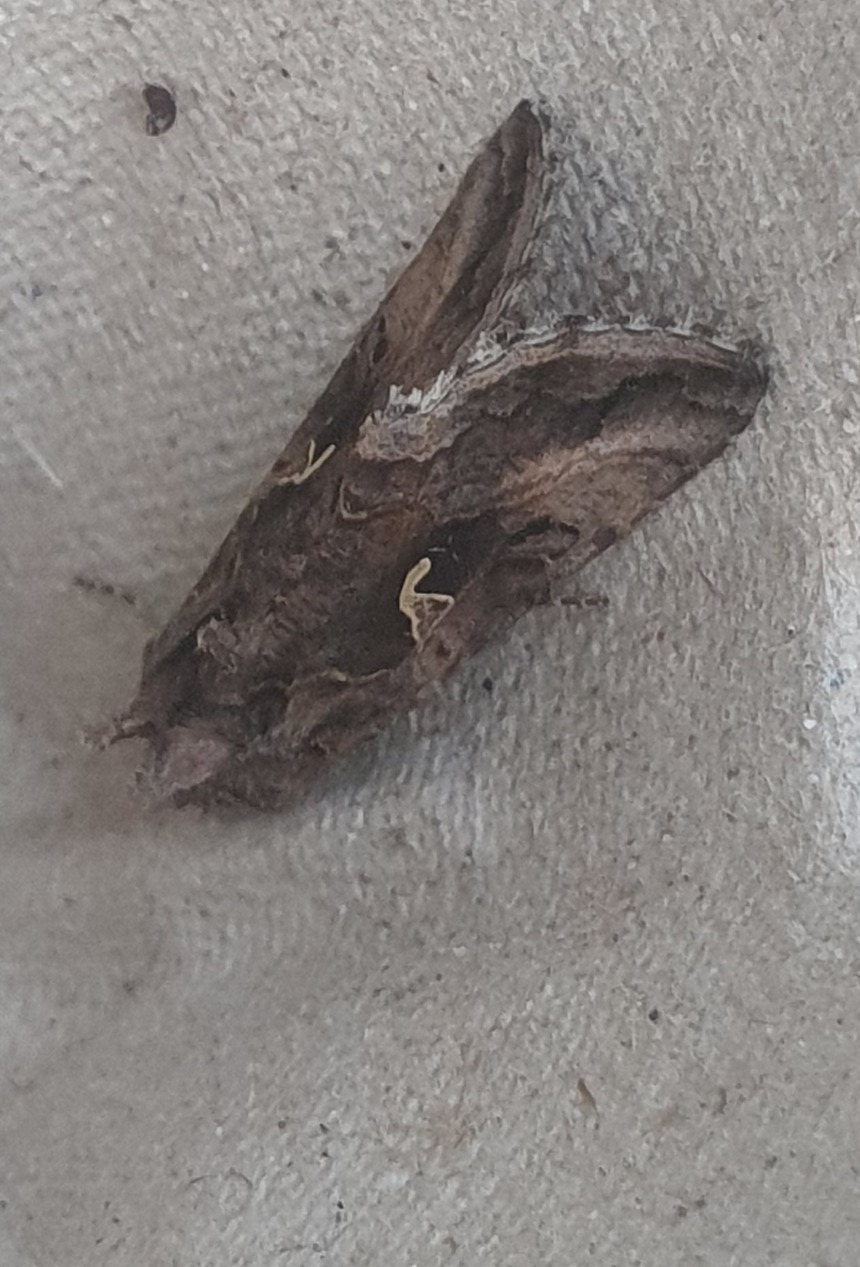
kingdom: Animalia
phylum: Arthropoda
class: Insecta
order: Lepidoptera
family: Noctuidae
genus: Autographa
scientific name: Autographa gamma
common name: Gammaugle
